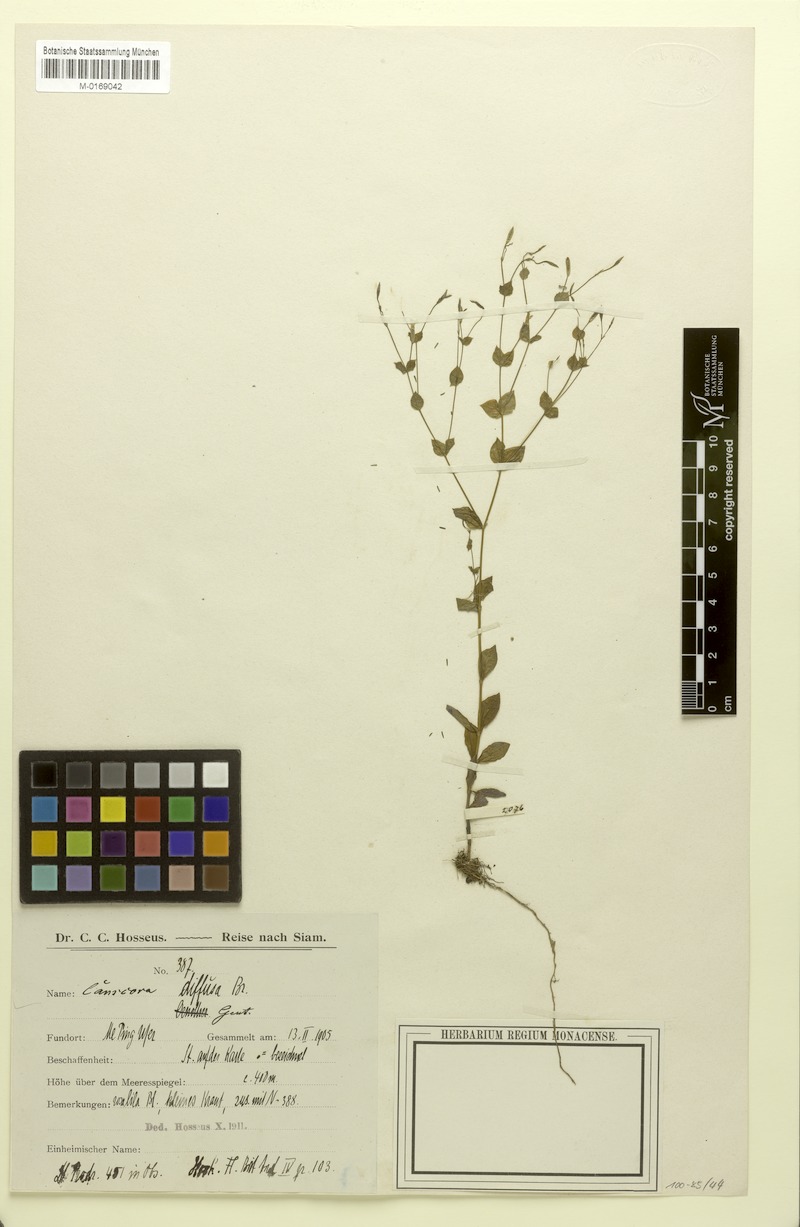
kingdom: Plantae
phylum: Tracheophyta
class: Magnoliopsida
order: Gentianales
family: Gentianaceae
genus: Canscora
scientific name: Canscora diffusa
